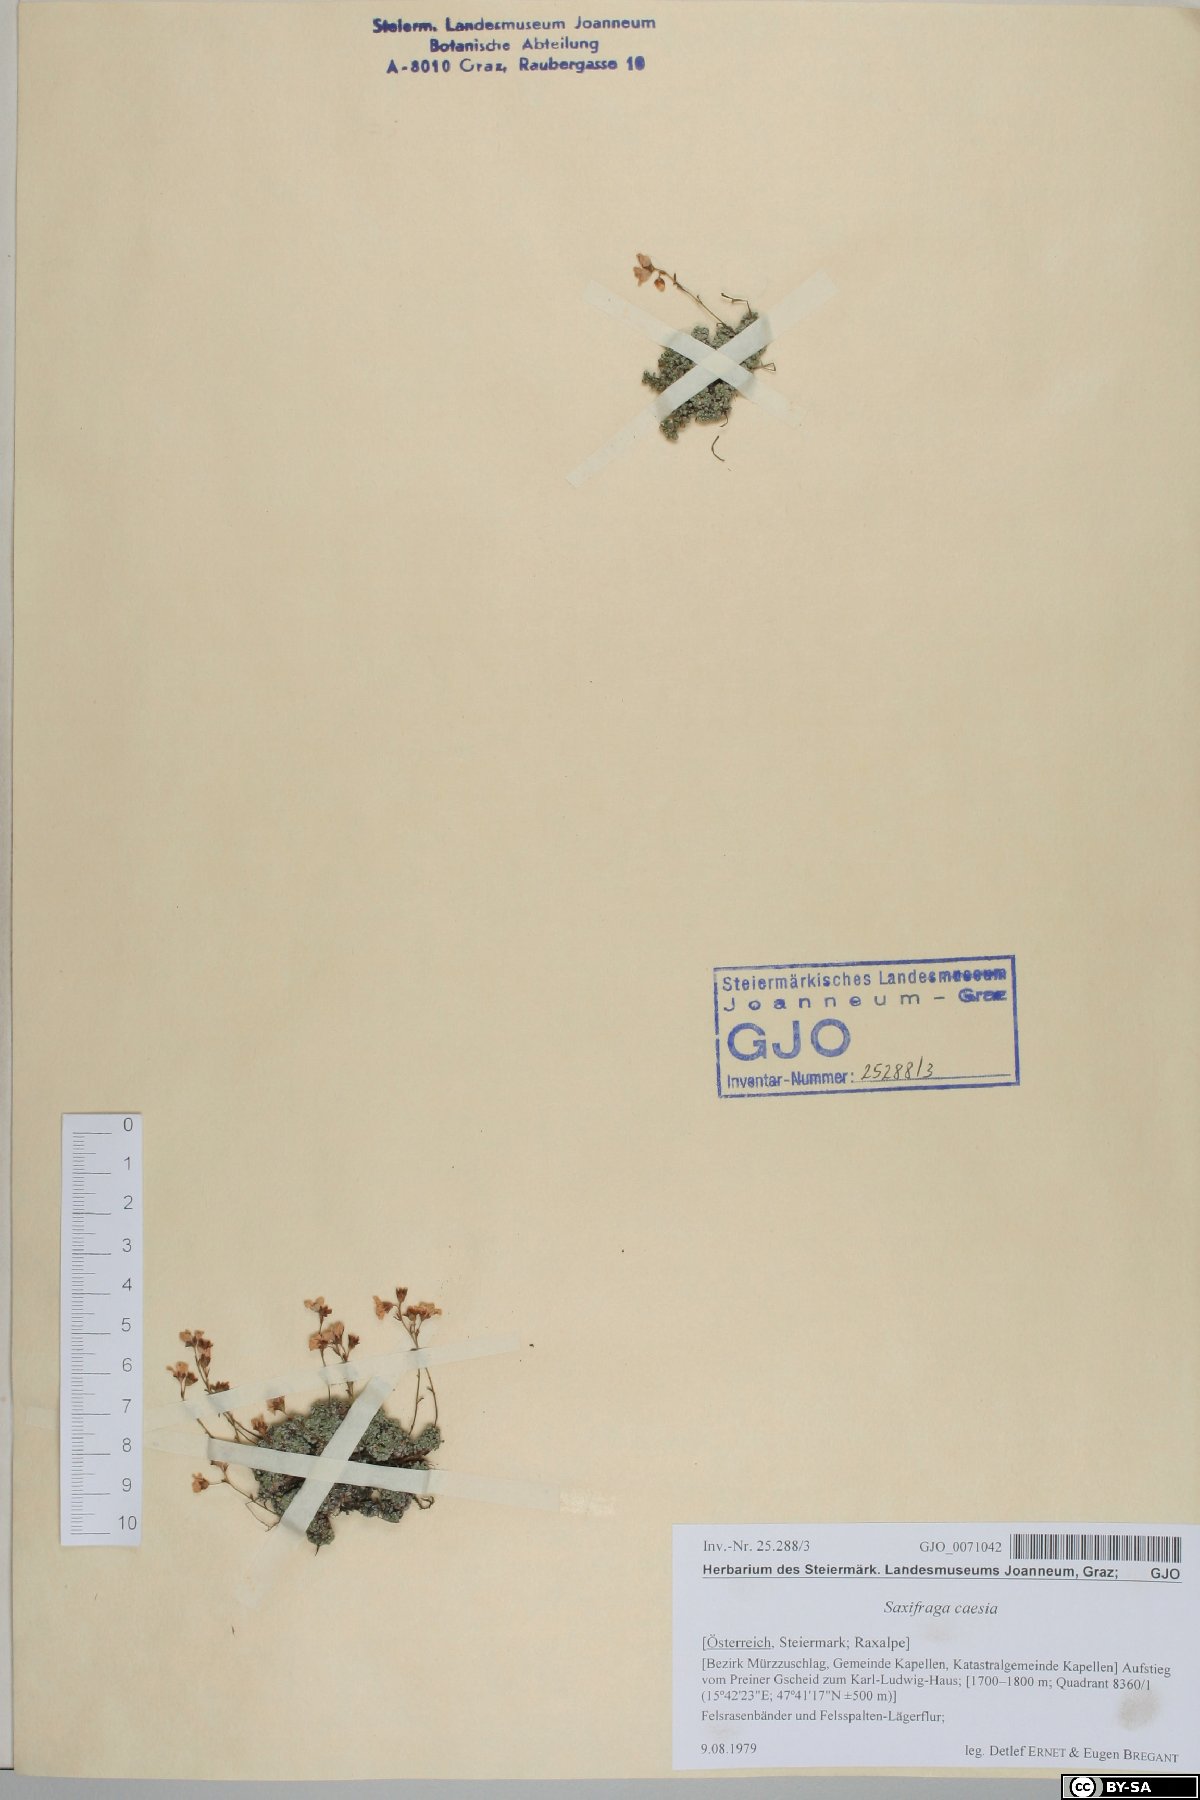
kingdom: Plantae
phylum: Tracheophyta
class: Magnoliopsida
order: Saxifragales
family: Saxifragaceae
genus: Saxifraga
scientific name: Saxifraga caesia
